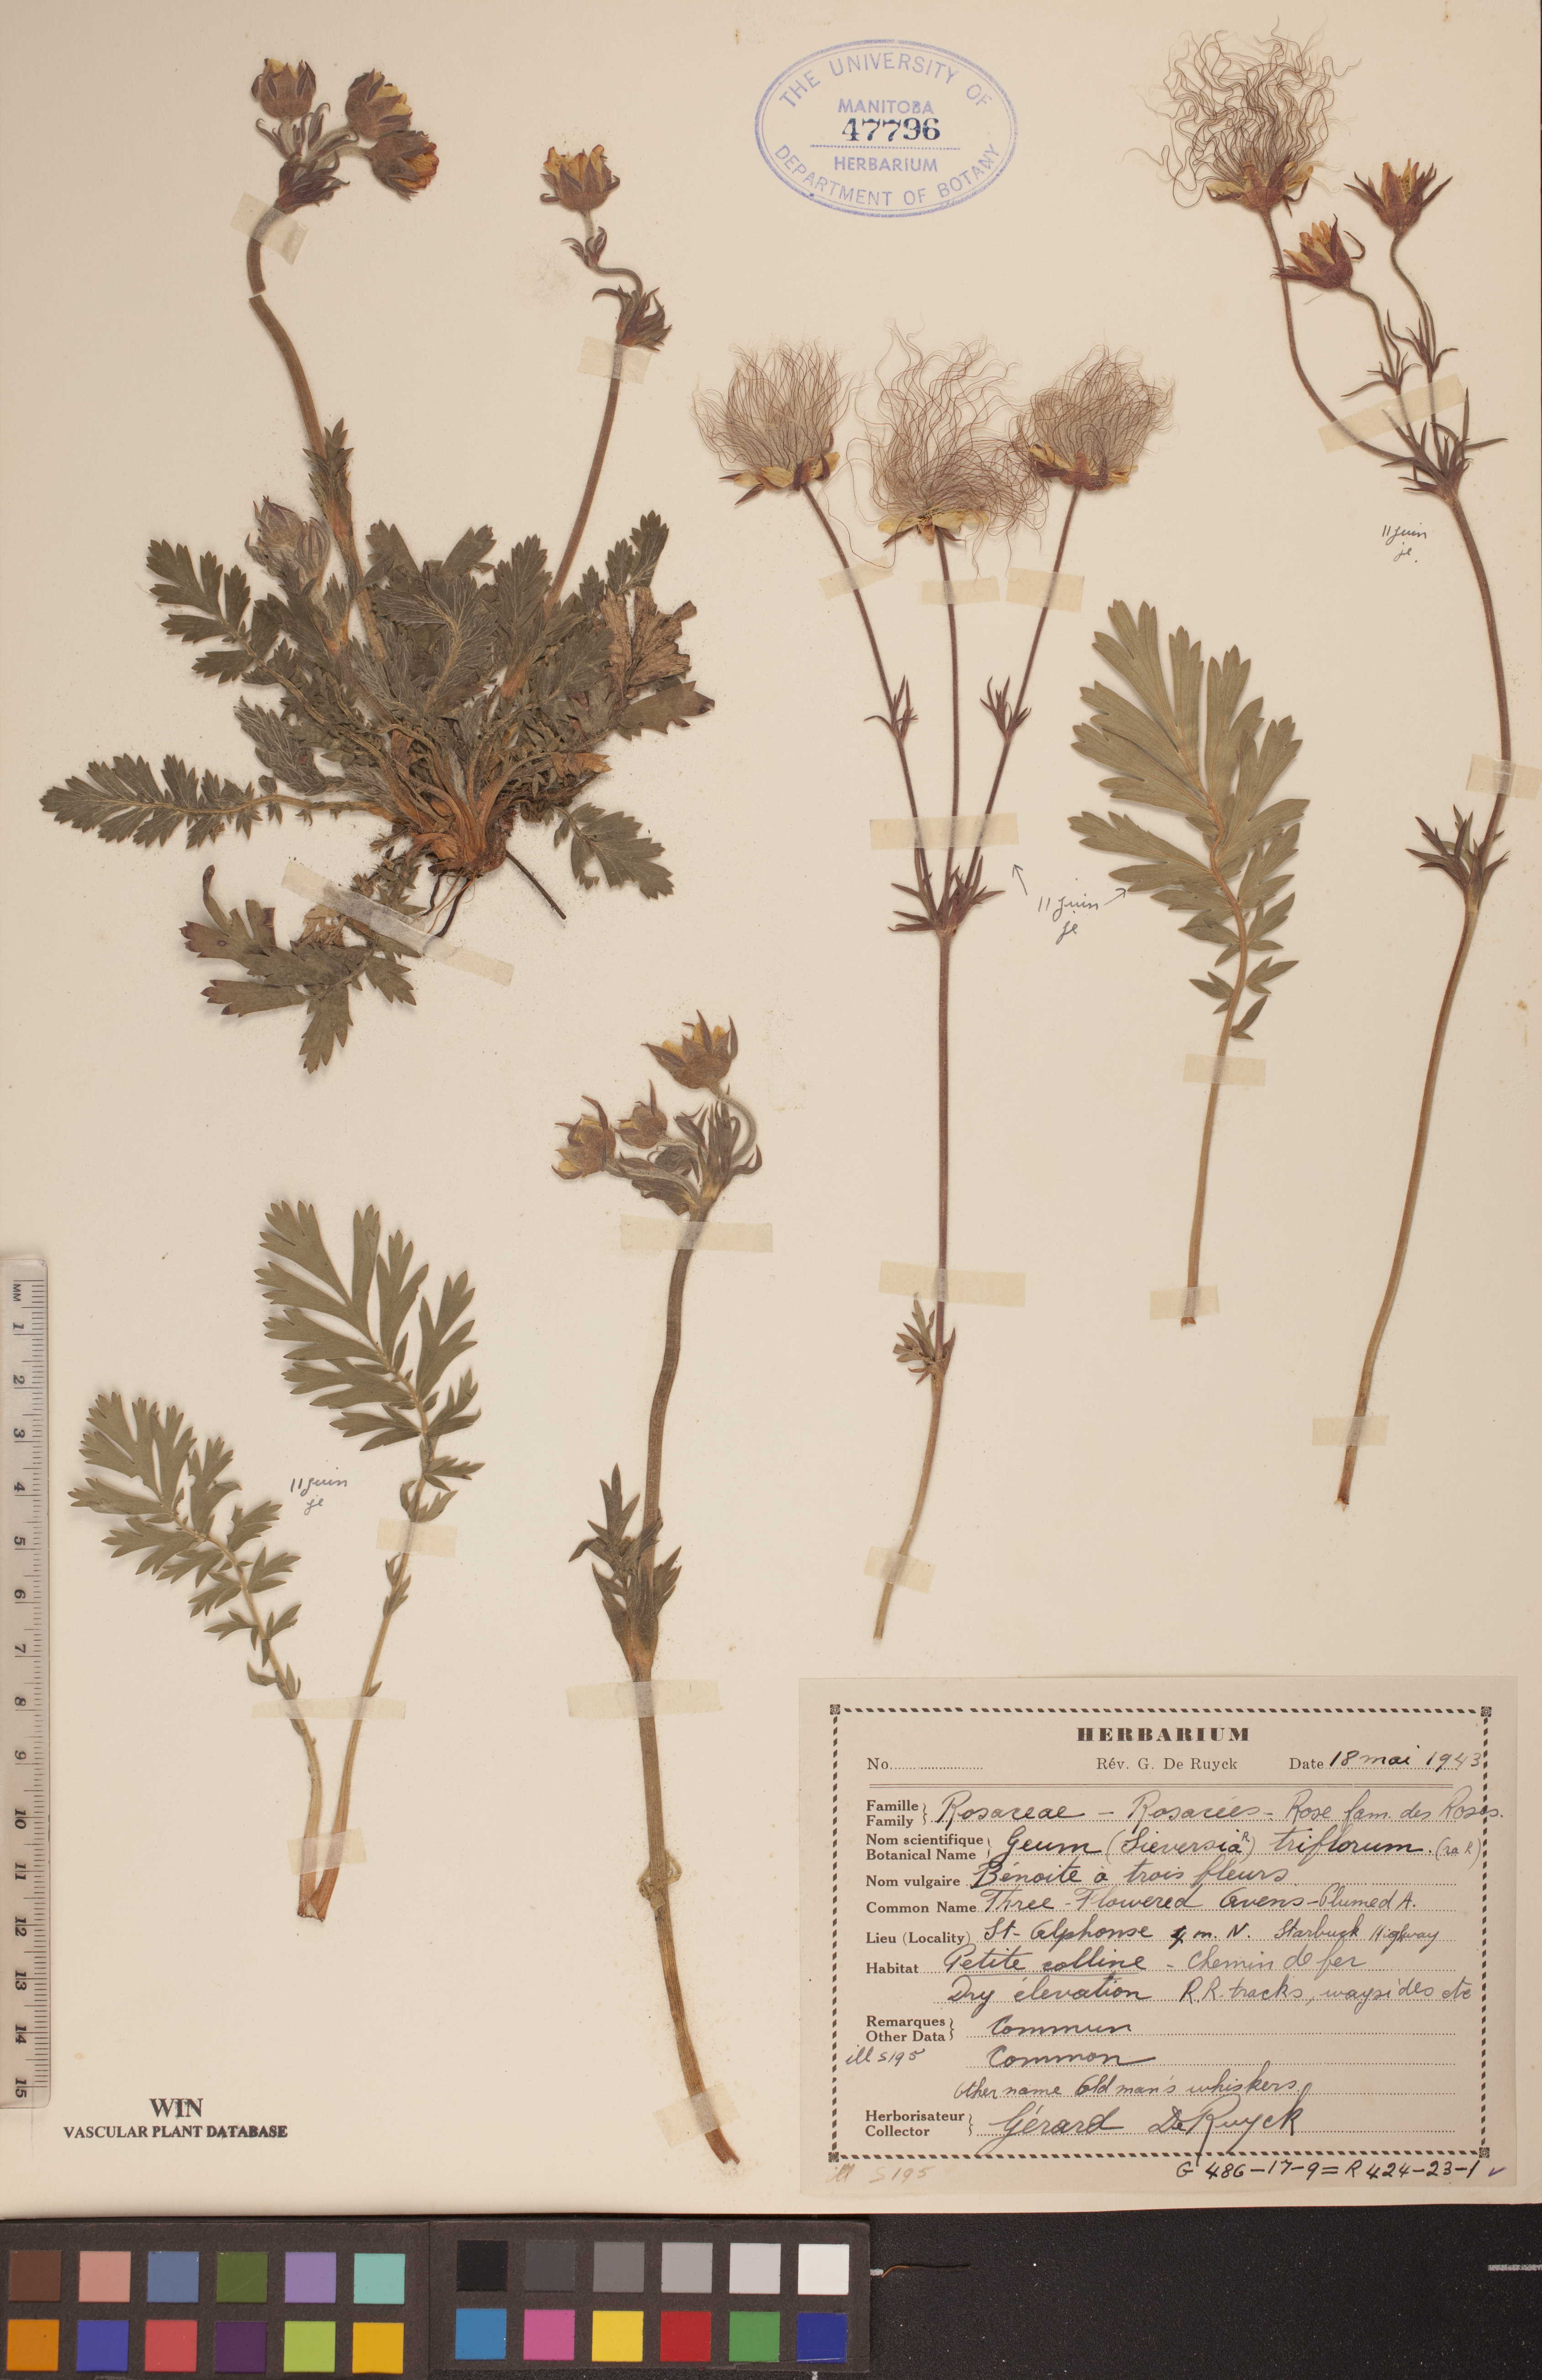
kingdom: Plantae
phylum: Tracheophyta
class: Magnoliopsida
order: Rosales
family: Rosaceae
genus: Geum
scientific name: Geum triflorum
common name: Old man's whiskers
